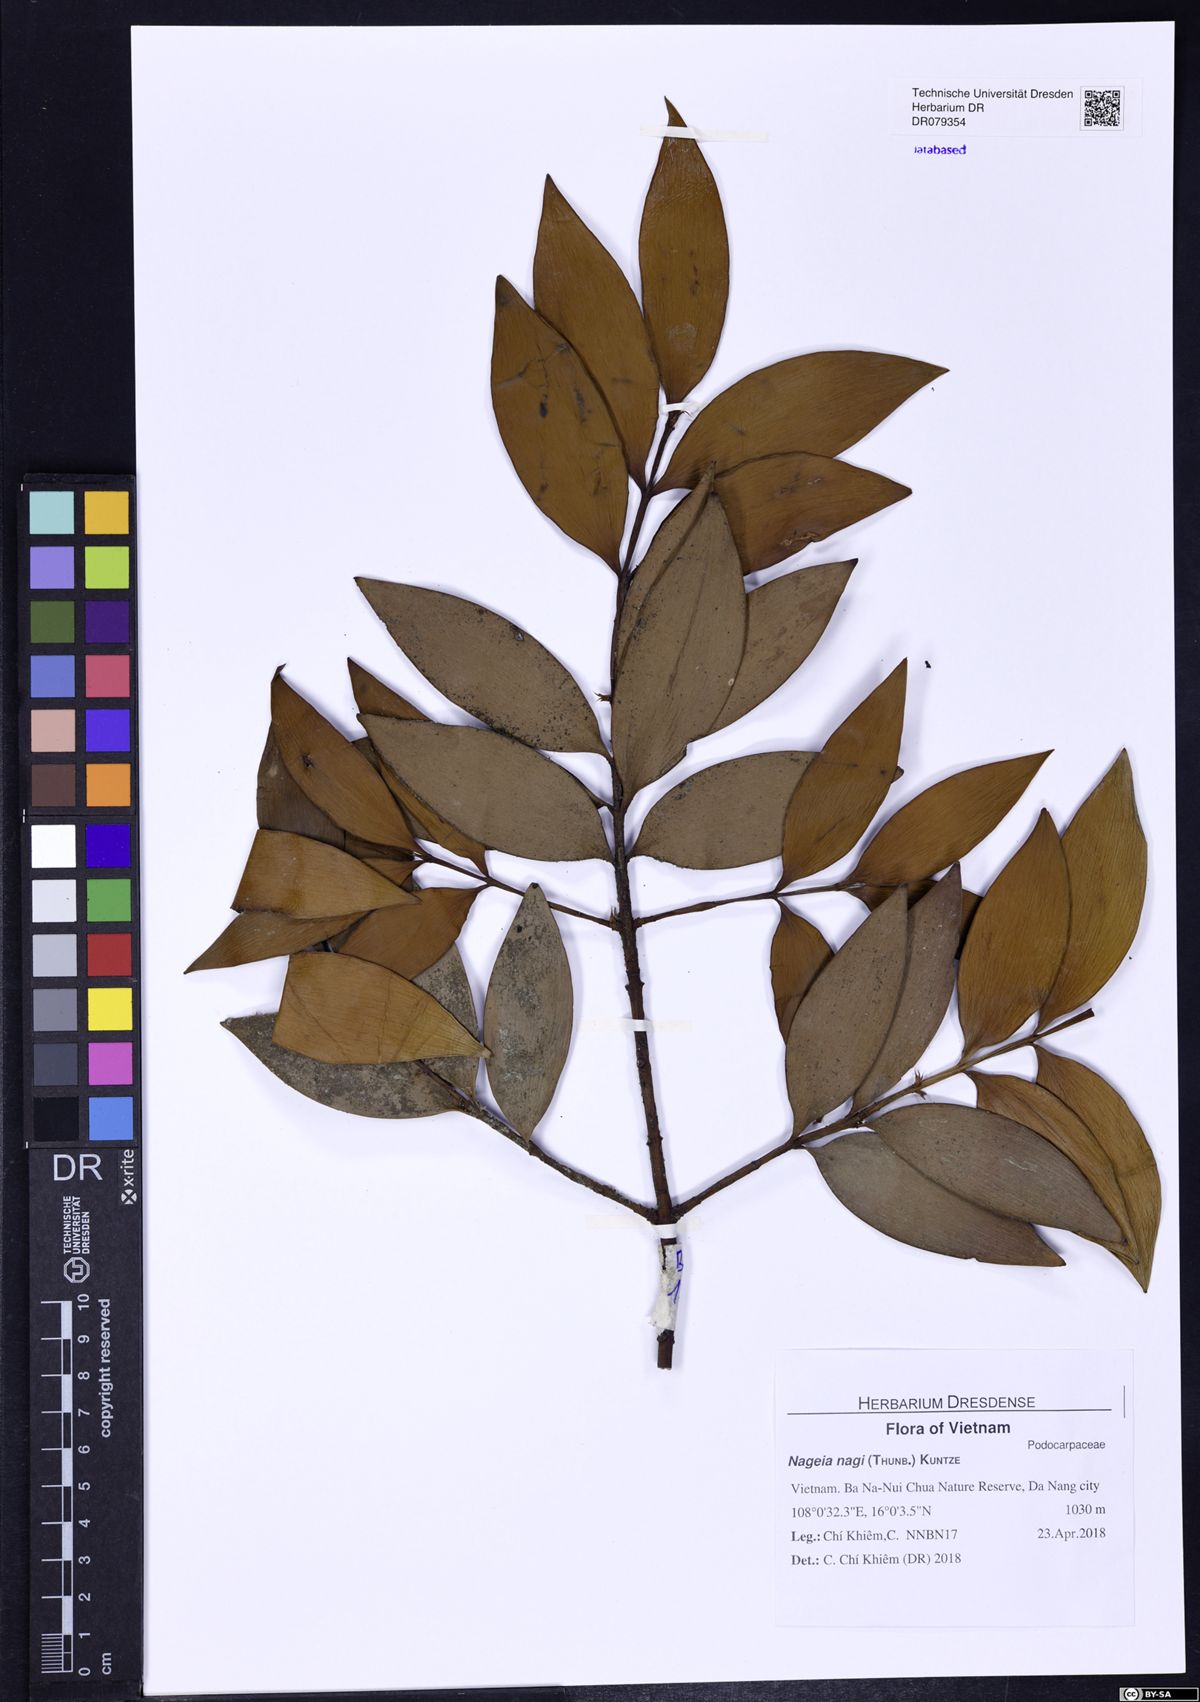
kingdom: Plantae
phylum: Tracheophyta
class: Pinopsida
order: Pinales
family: Podocarpaceae
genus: Nageia
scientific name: Nageia nagi
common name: Kaphal
